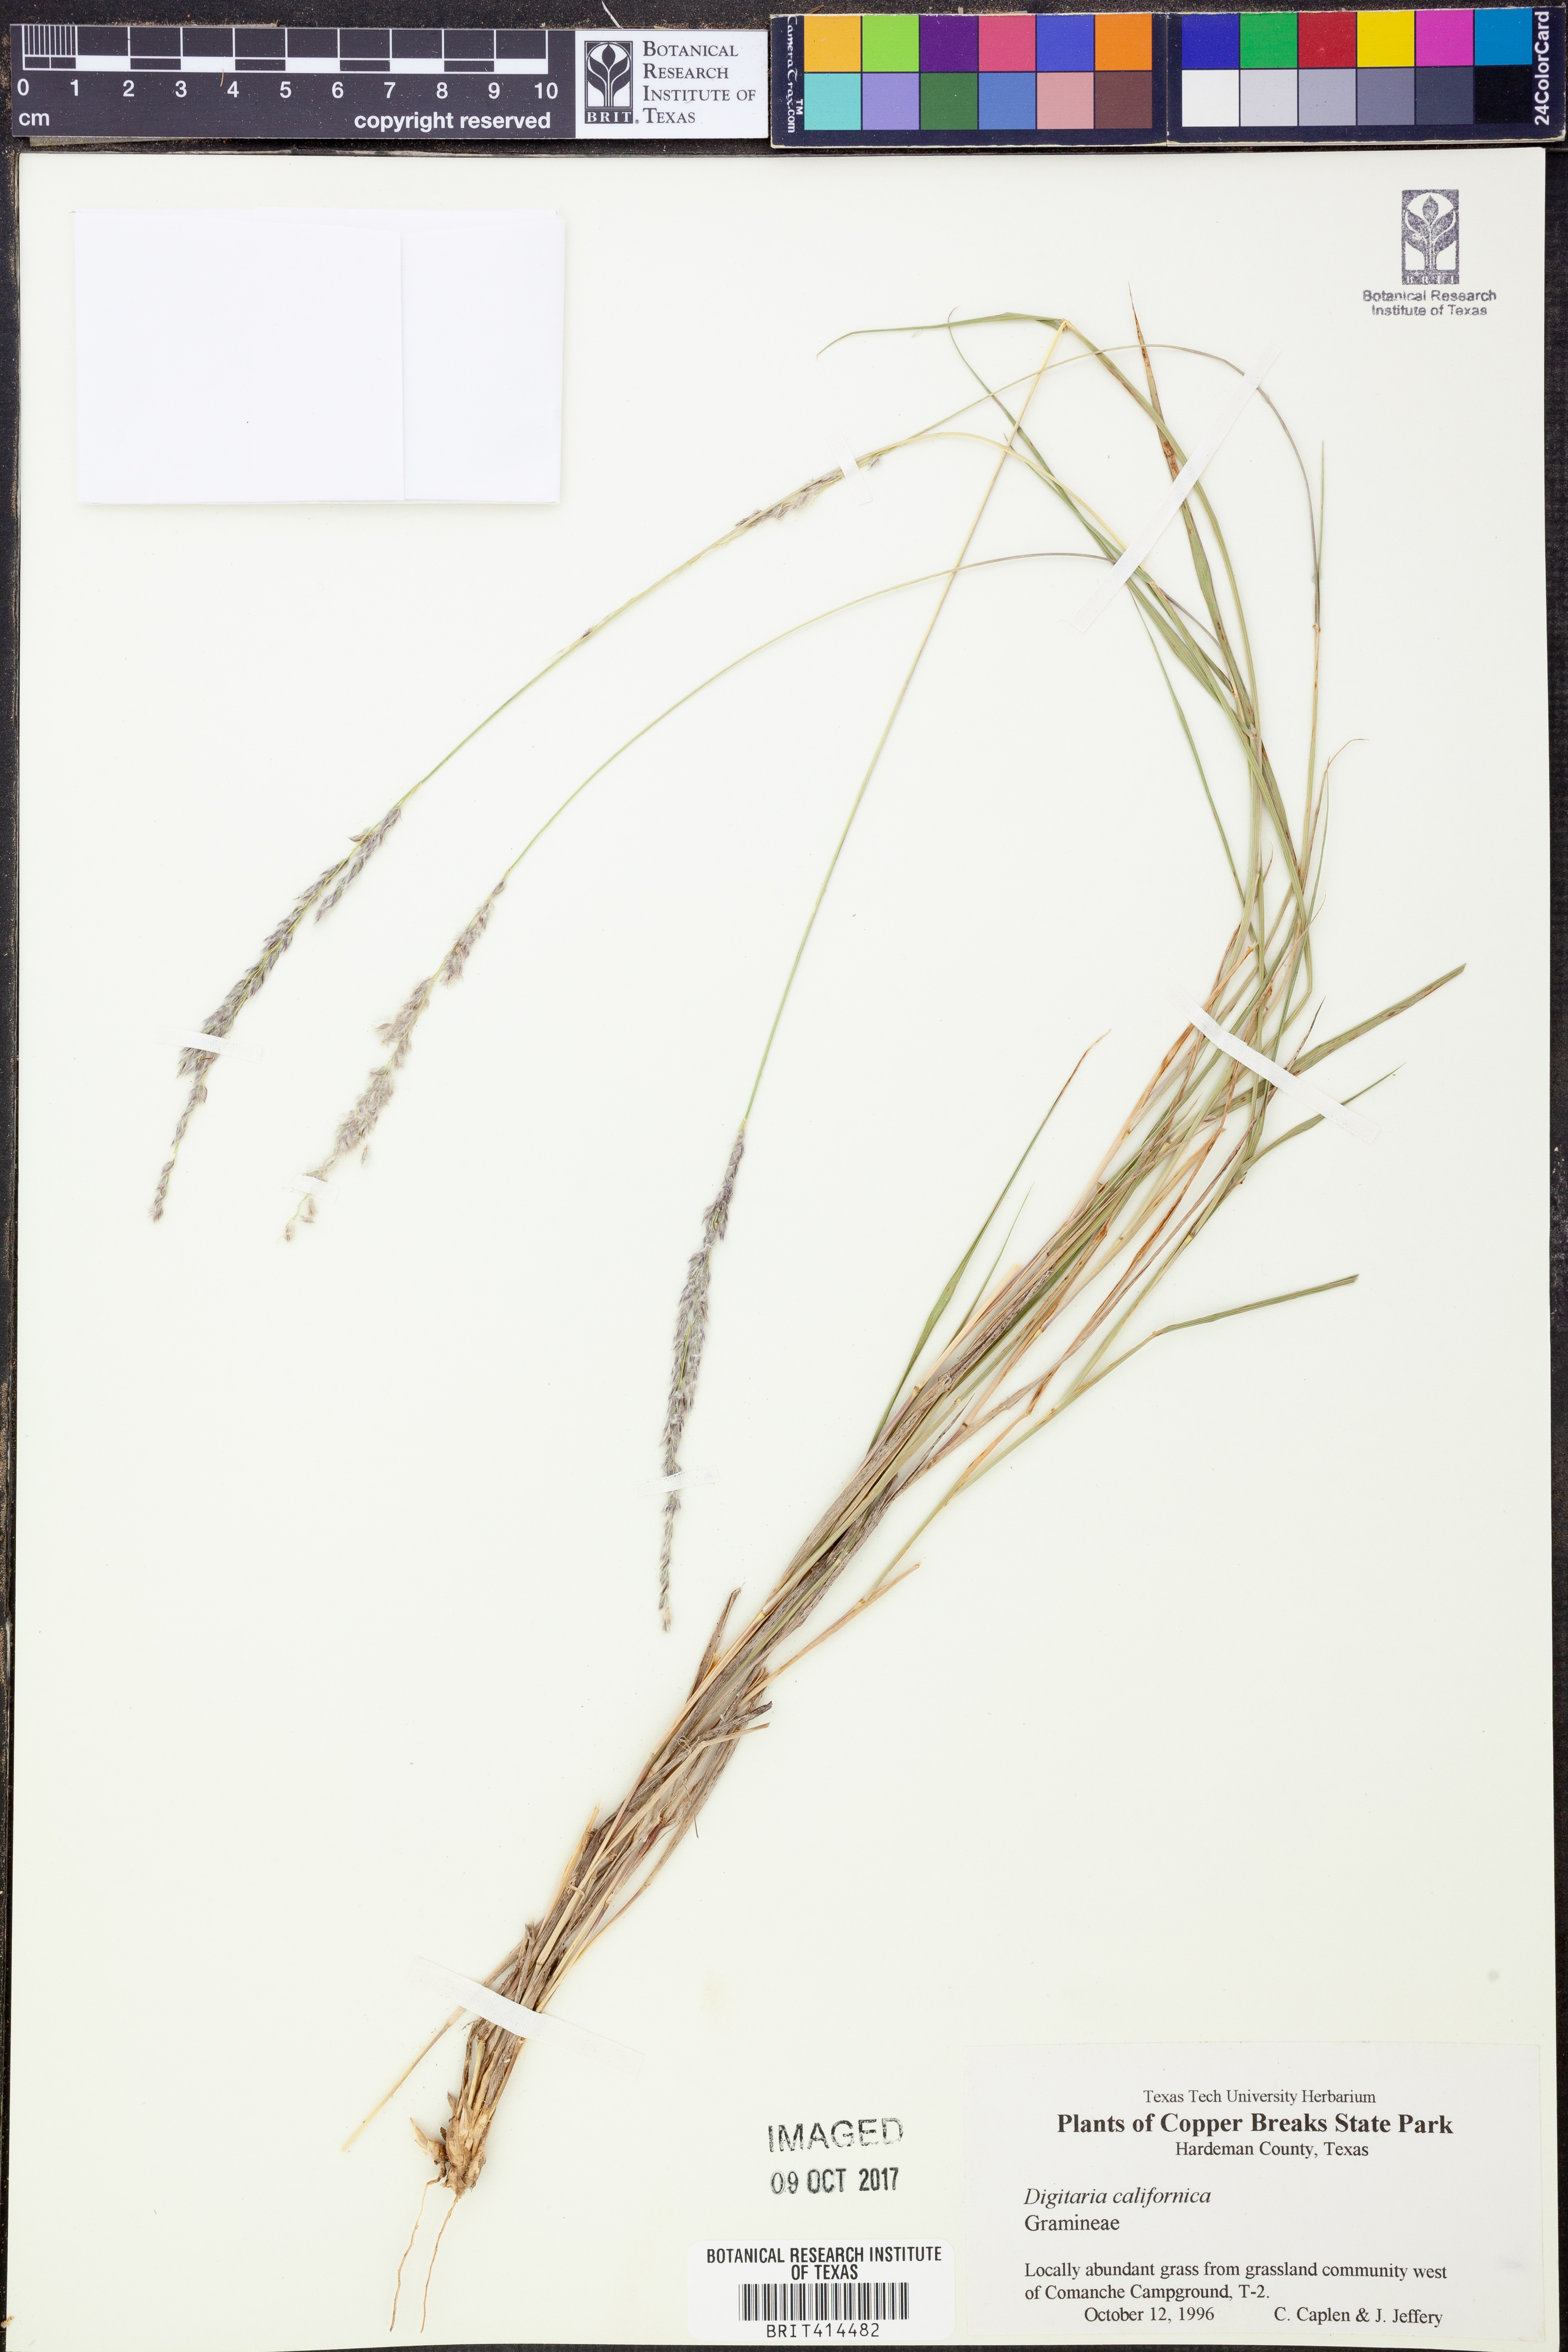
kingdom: Plantae
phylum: Tracheophyta
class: Liliopsida
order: Poales
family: Poaceae
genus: Digitaria
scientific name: Digitaria californica
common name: Arizona cottontop
